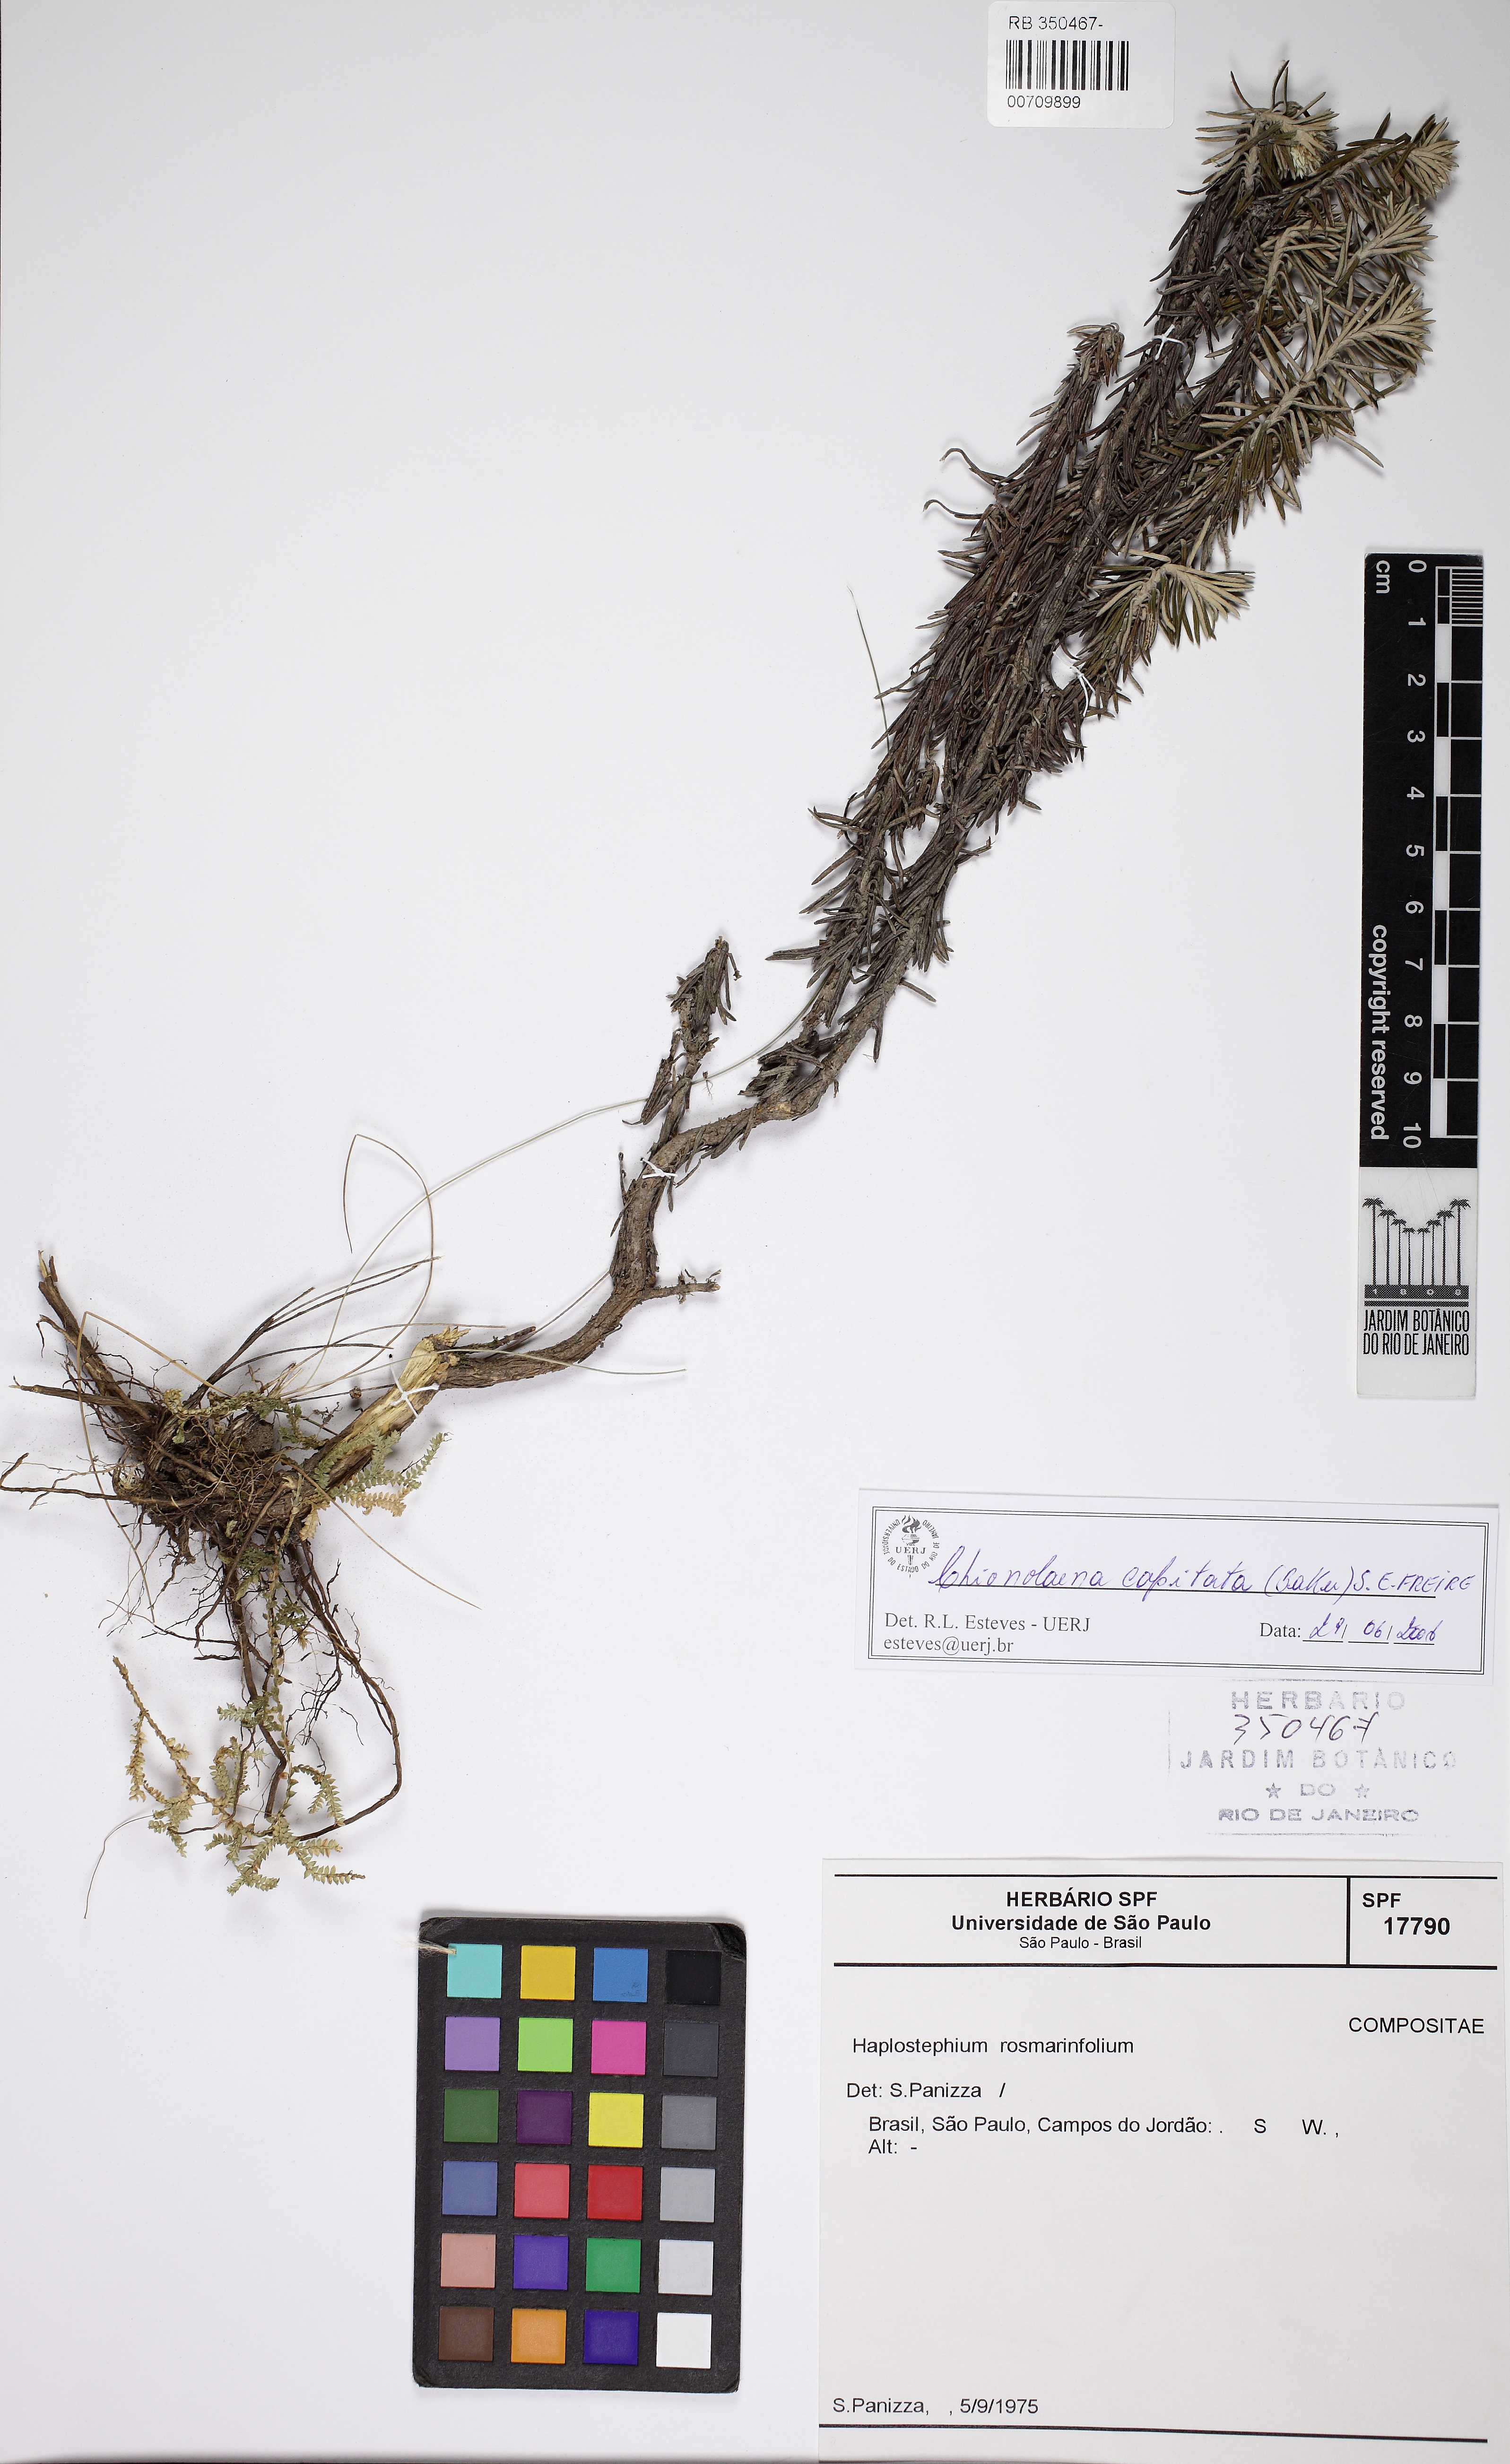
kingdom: Plantae
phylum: Tracheophyta
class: Magnoliopsida
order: Asterales
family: Asteraceae
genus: Chionolaena
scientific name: Chionolaena capitata
